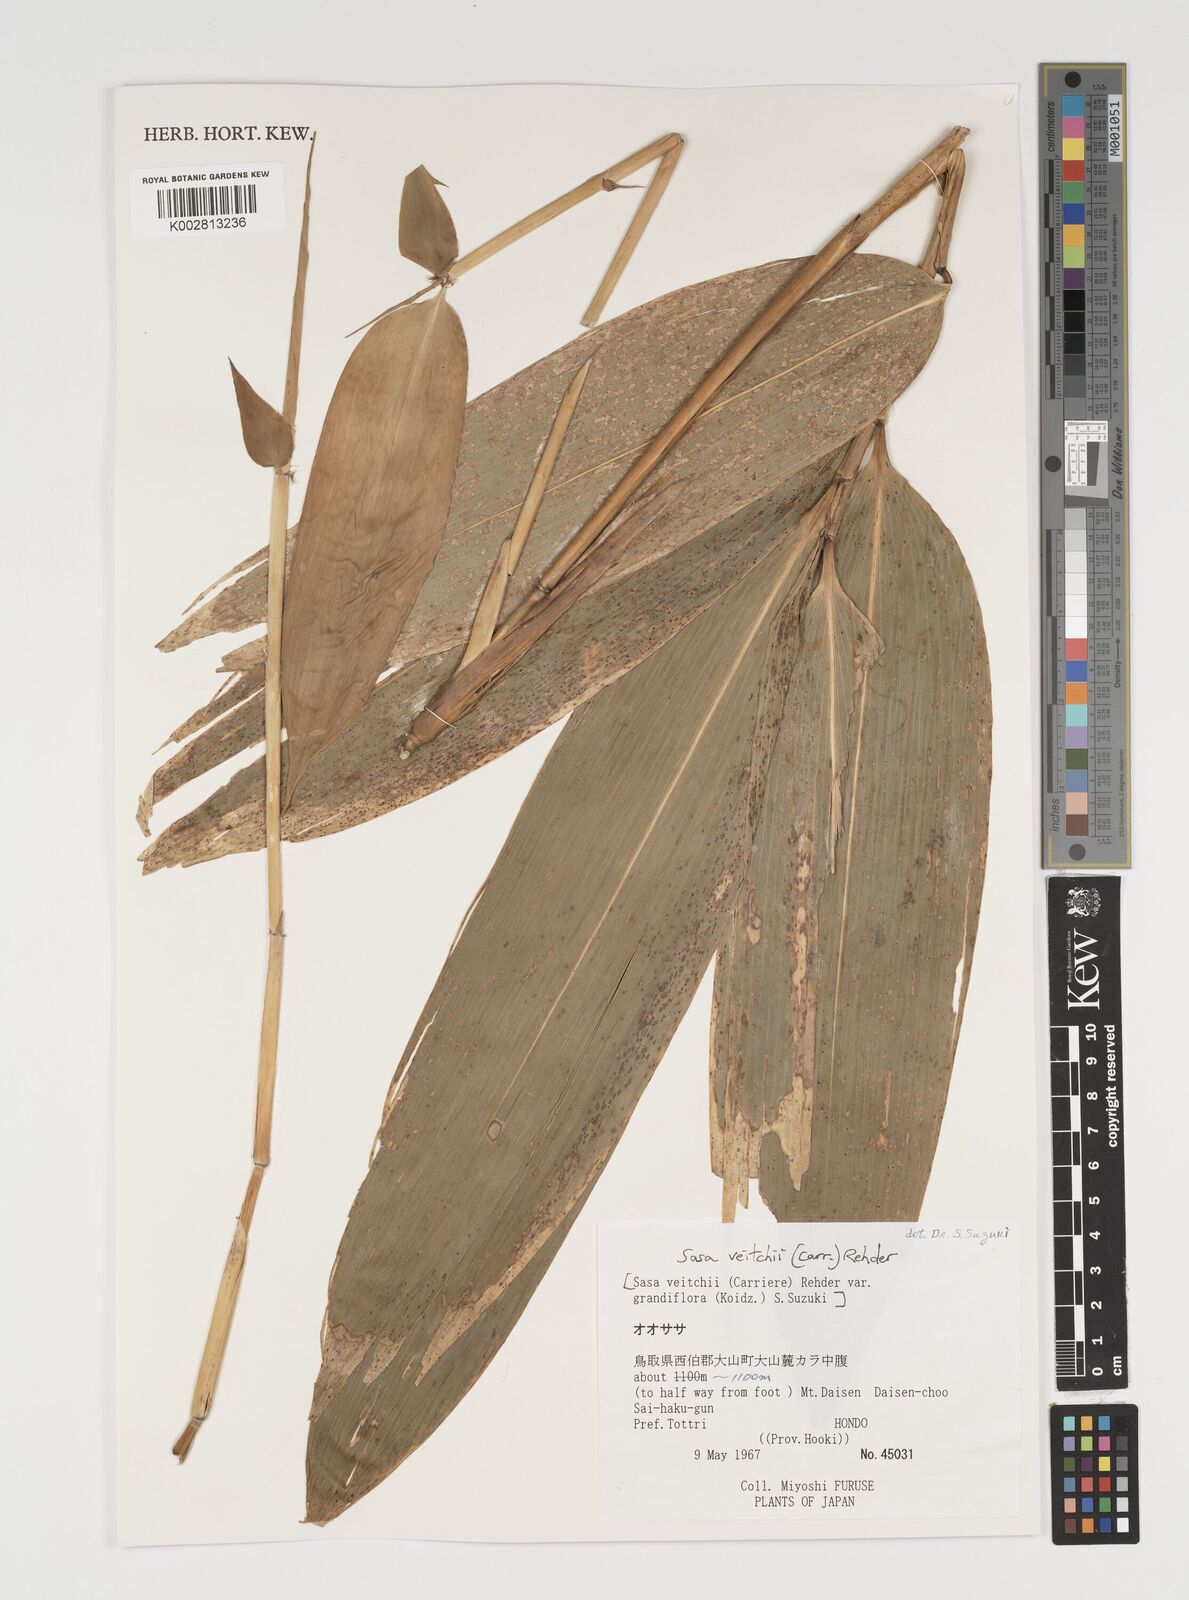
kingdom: Plantae
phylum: Tracheophyta
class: Liliopsida
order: Poales
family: Poaceae
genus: Sasa
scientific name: Sasa veitchii
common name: Veitch's bamboo
